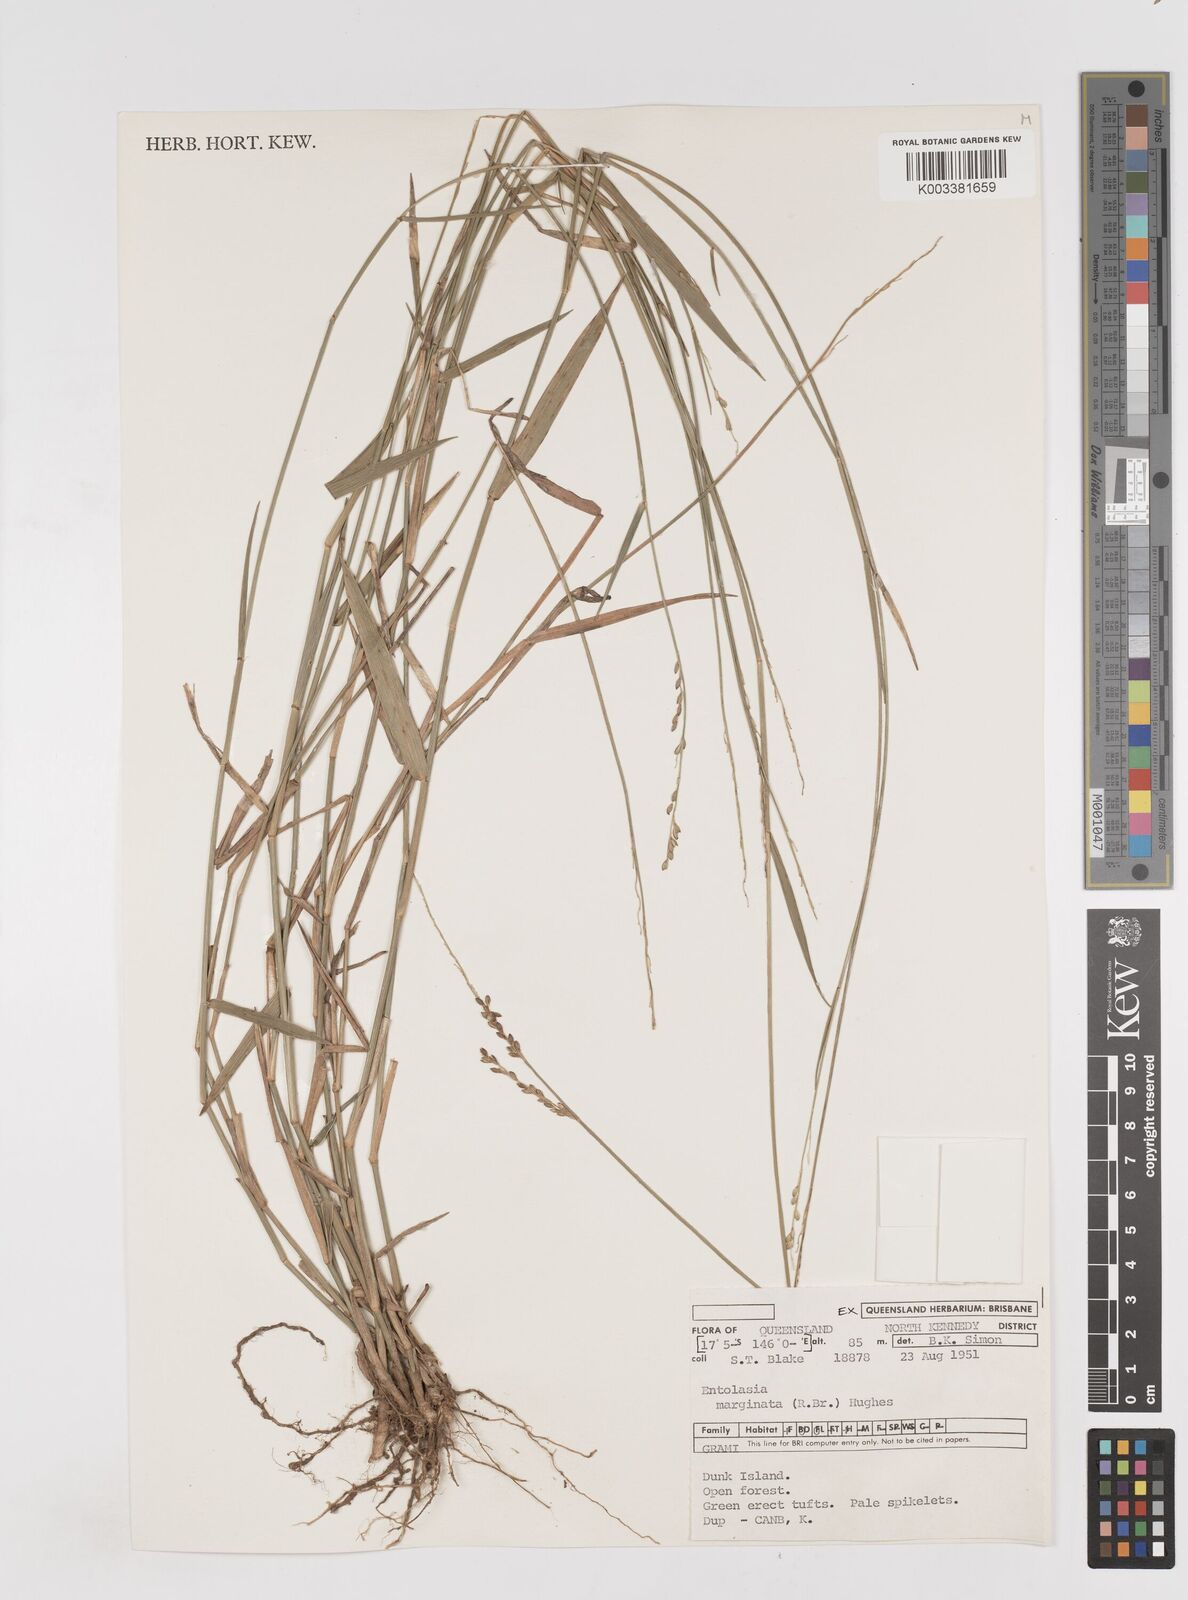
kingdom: Plantae
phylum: Tracheophyta
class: Liliopsida
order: Poales
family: Poaceae
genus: Entolasia
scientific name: Entolasia marginata
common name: Australian panicgrass
